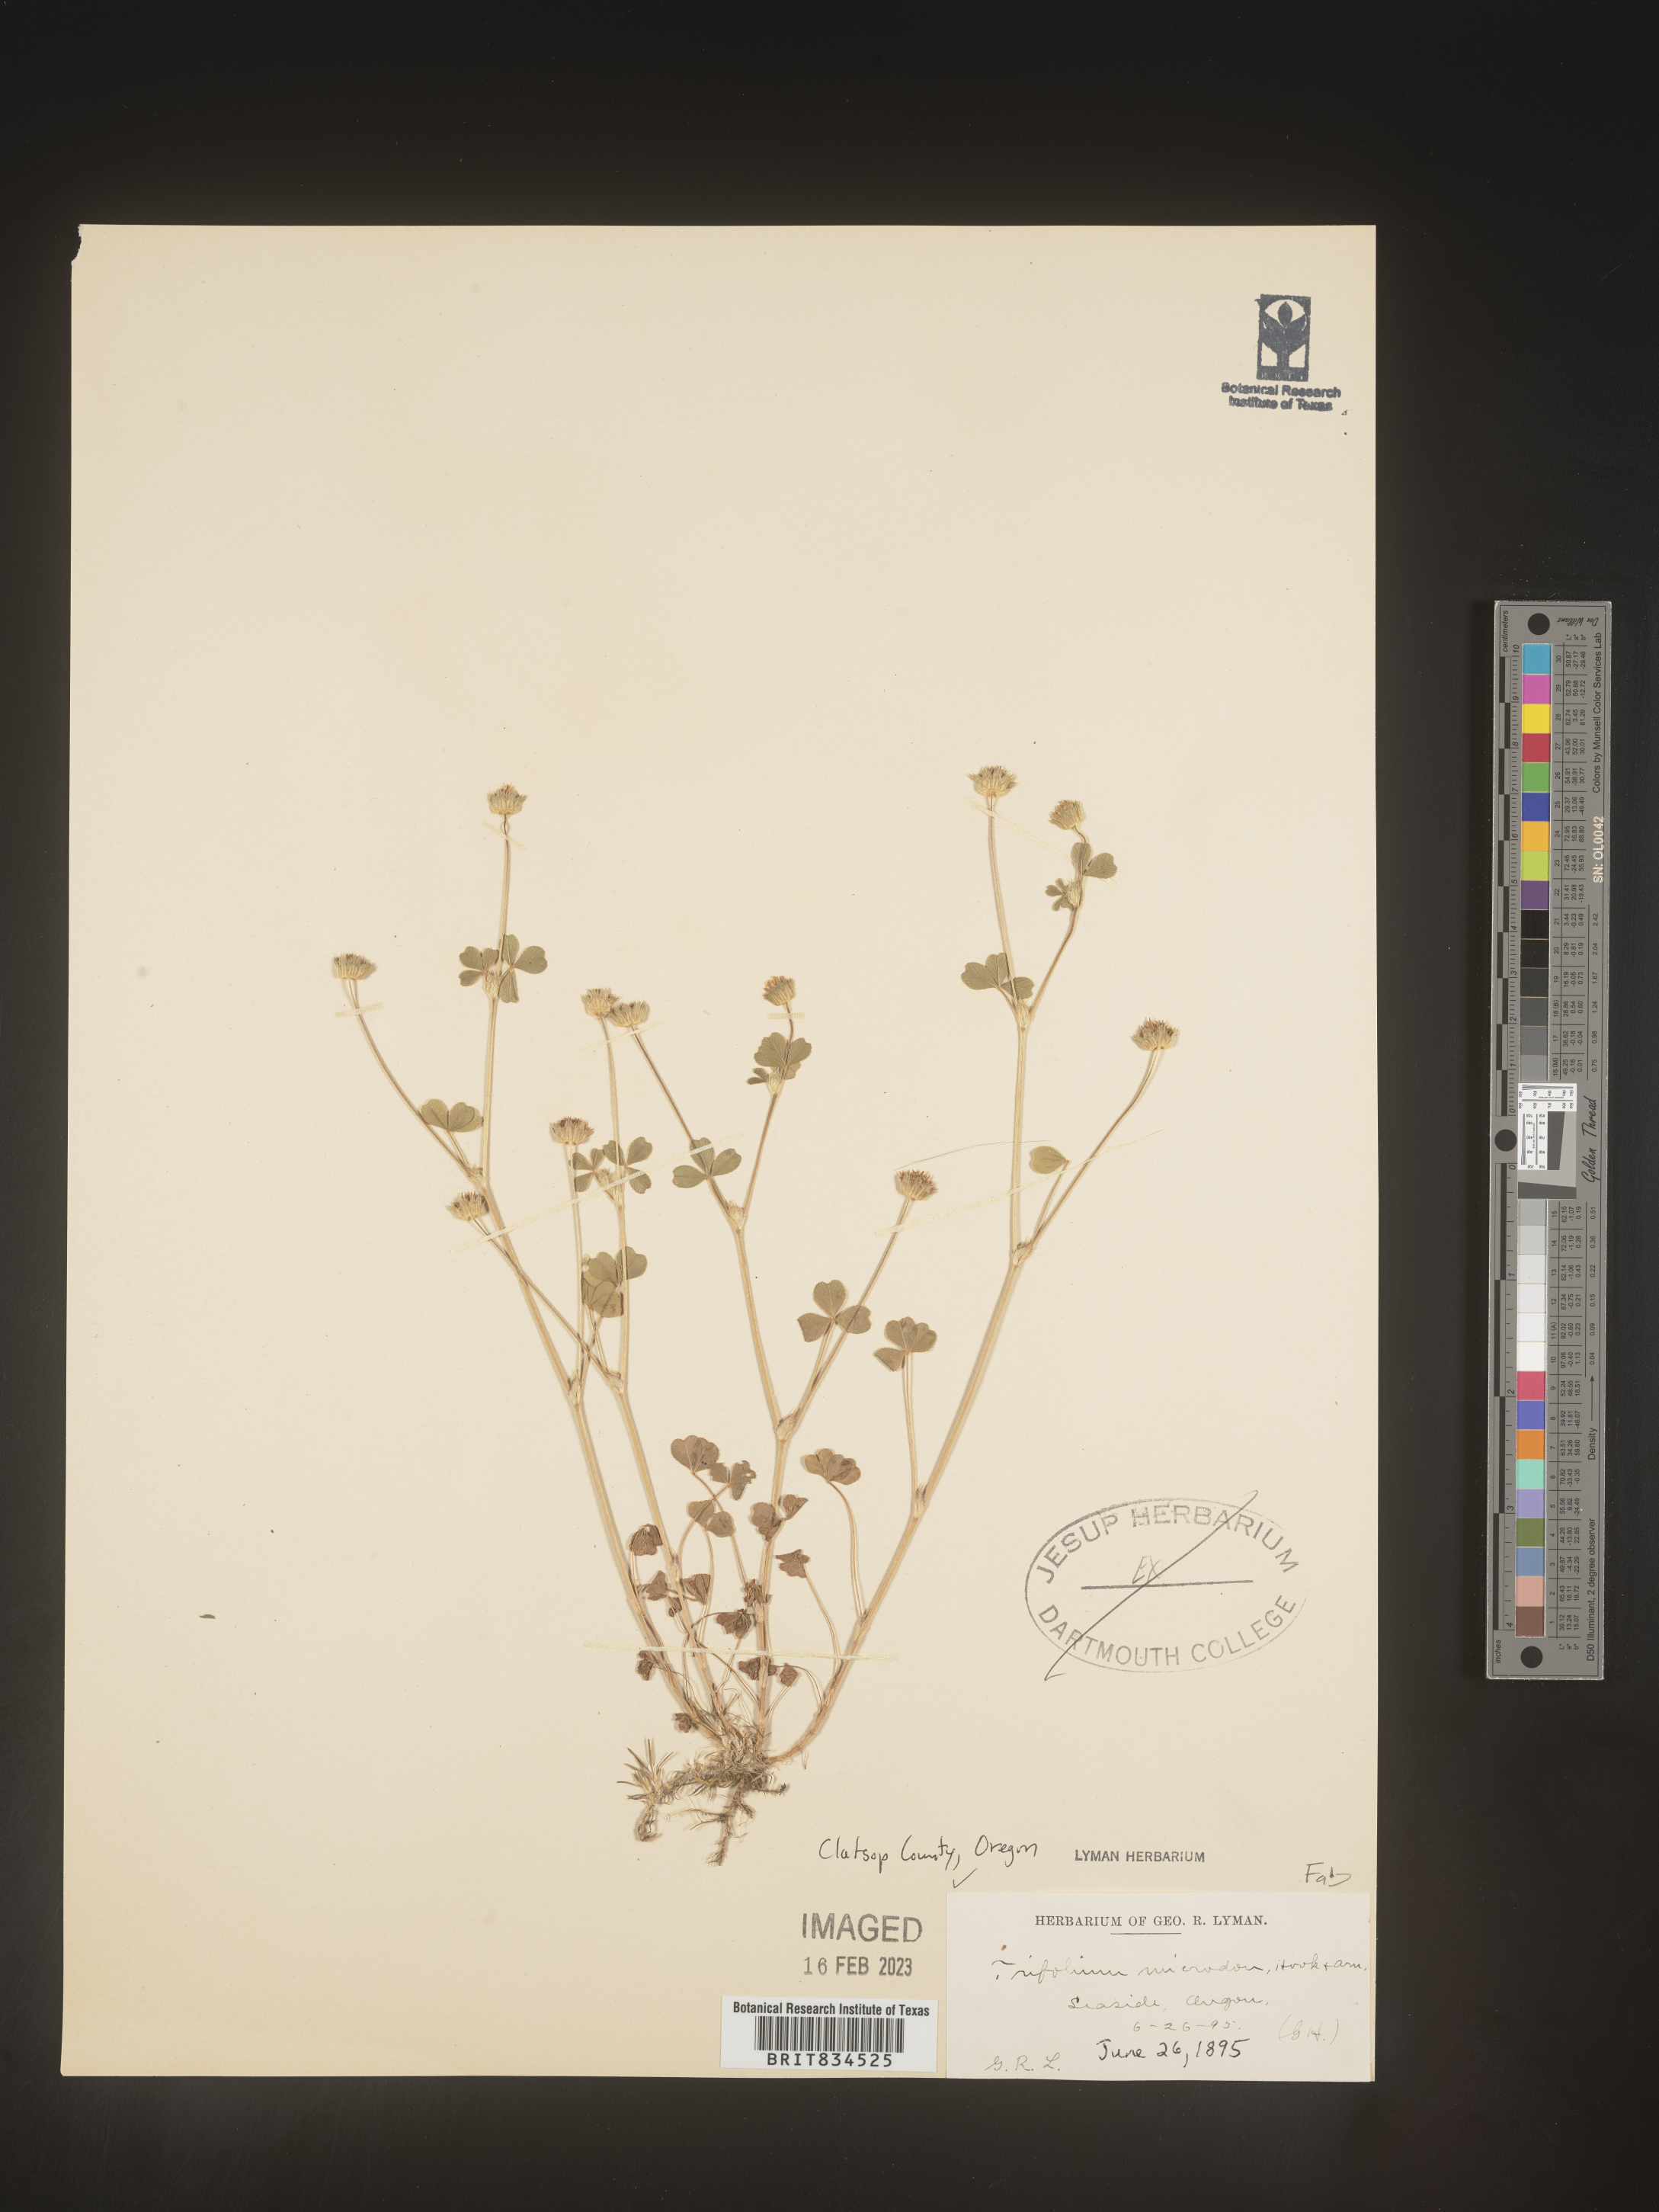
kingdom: Plantae
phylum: Tracheophyta
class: Magnoliopsida
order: Fabales
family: Fabaceae
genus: Trifolium
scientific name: Trifolium
